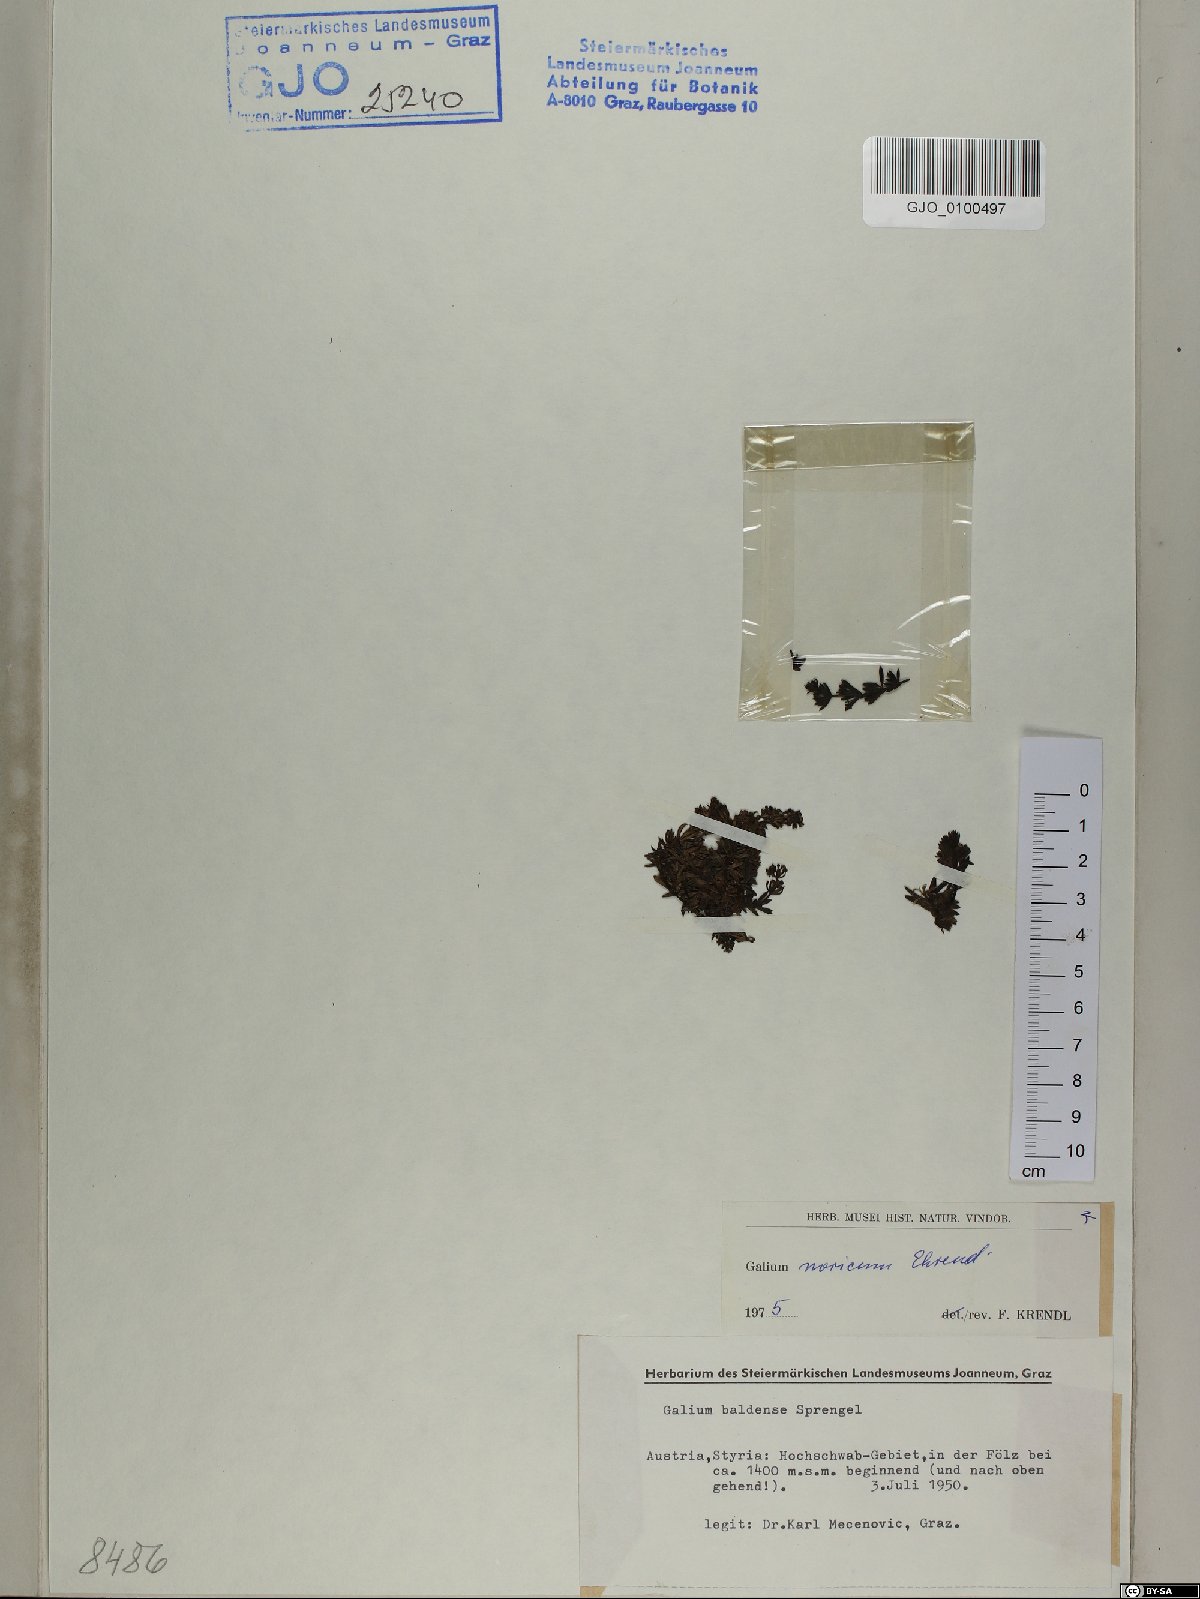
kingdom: Plantae
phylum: Tracheophyta
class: Magnoliopsida
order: Gentianales
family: Rubiaceae
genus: Galium
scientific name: Galium noricum
